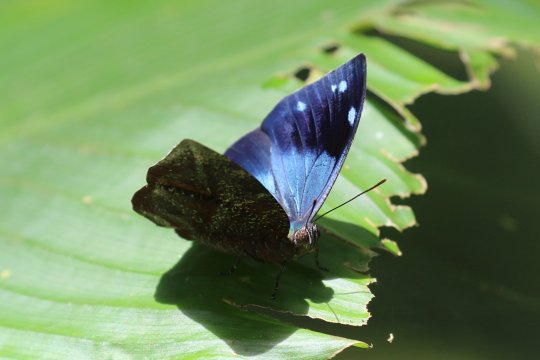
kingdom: Animalia
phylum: Arthropoda
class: Insecta
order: Lepidoptera
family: Nymphalidae
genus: Memphis
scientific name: Memphis lyceus
